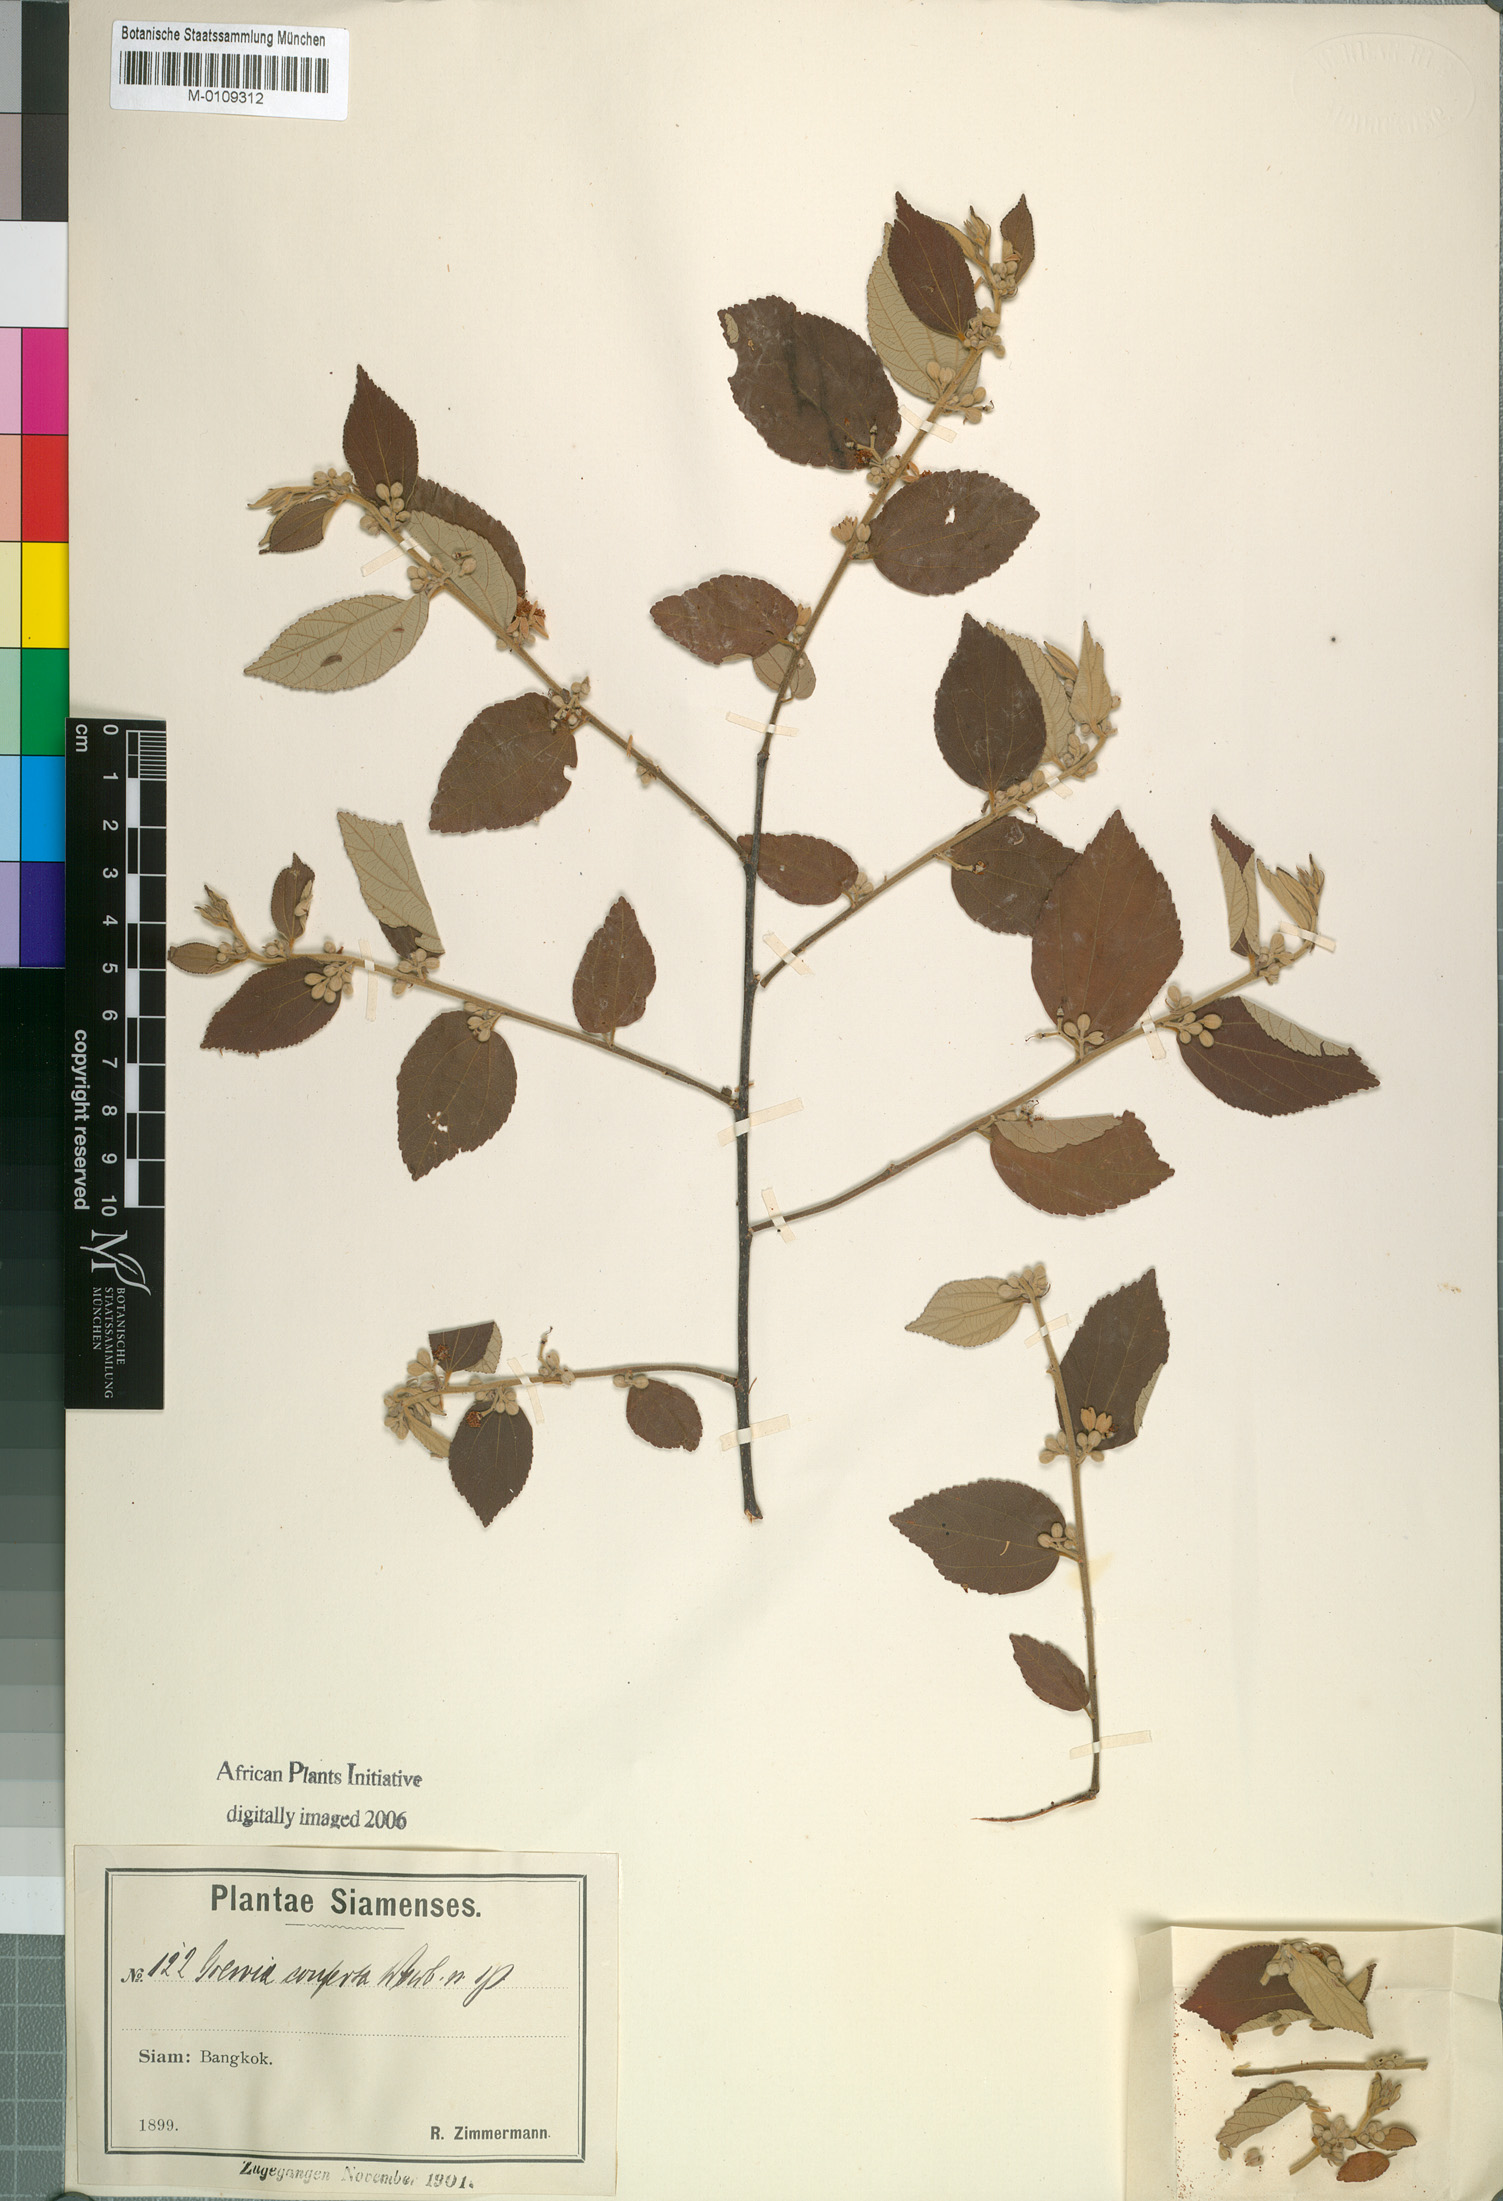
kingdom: Plantae
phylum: Tracheophyta
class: Magnoliopsida
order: Malvales
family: Malvaceae
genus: Grewia
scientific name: Grewia conferta
